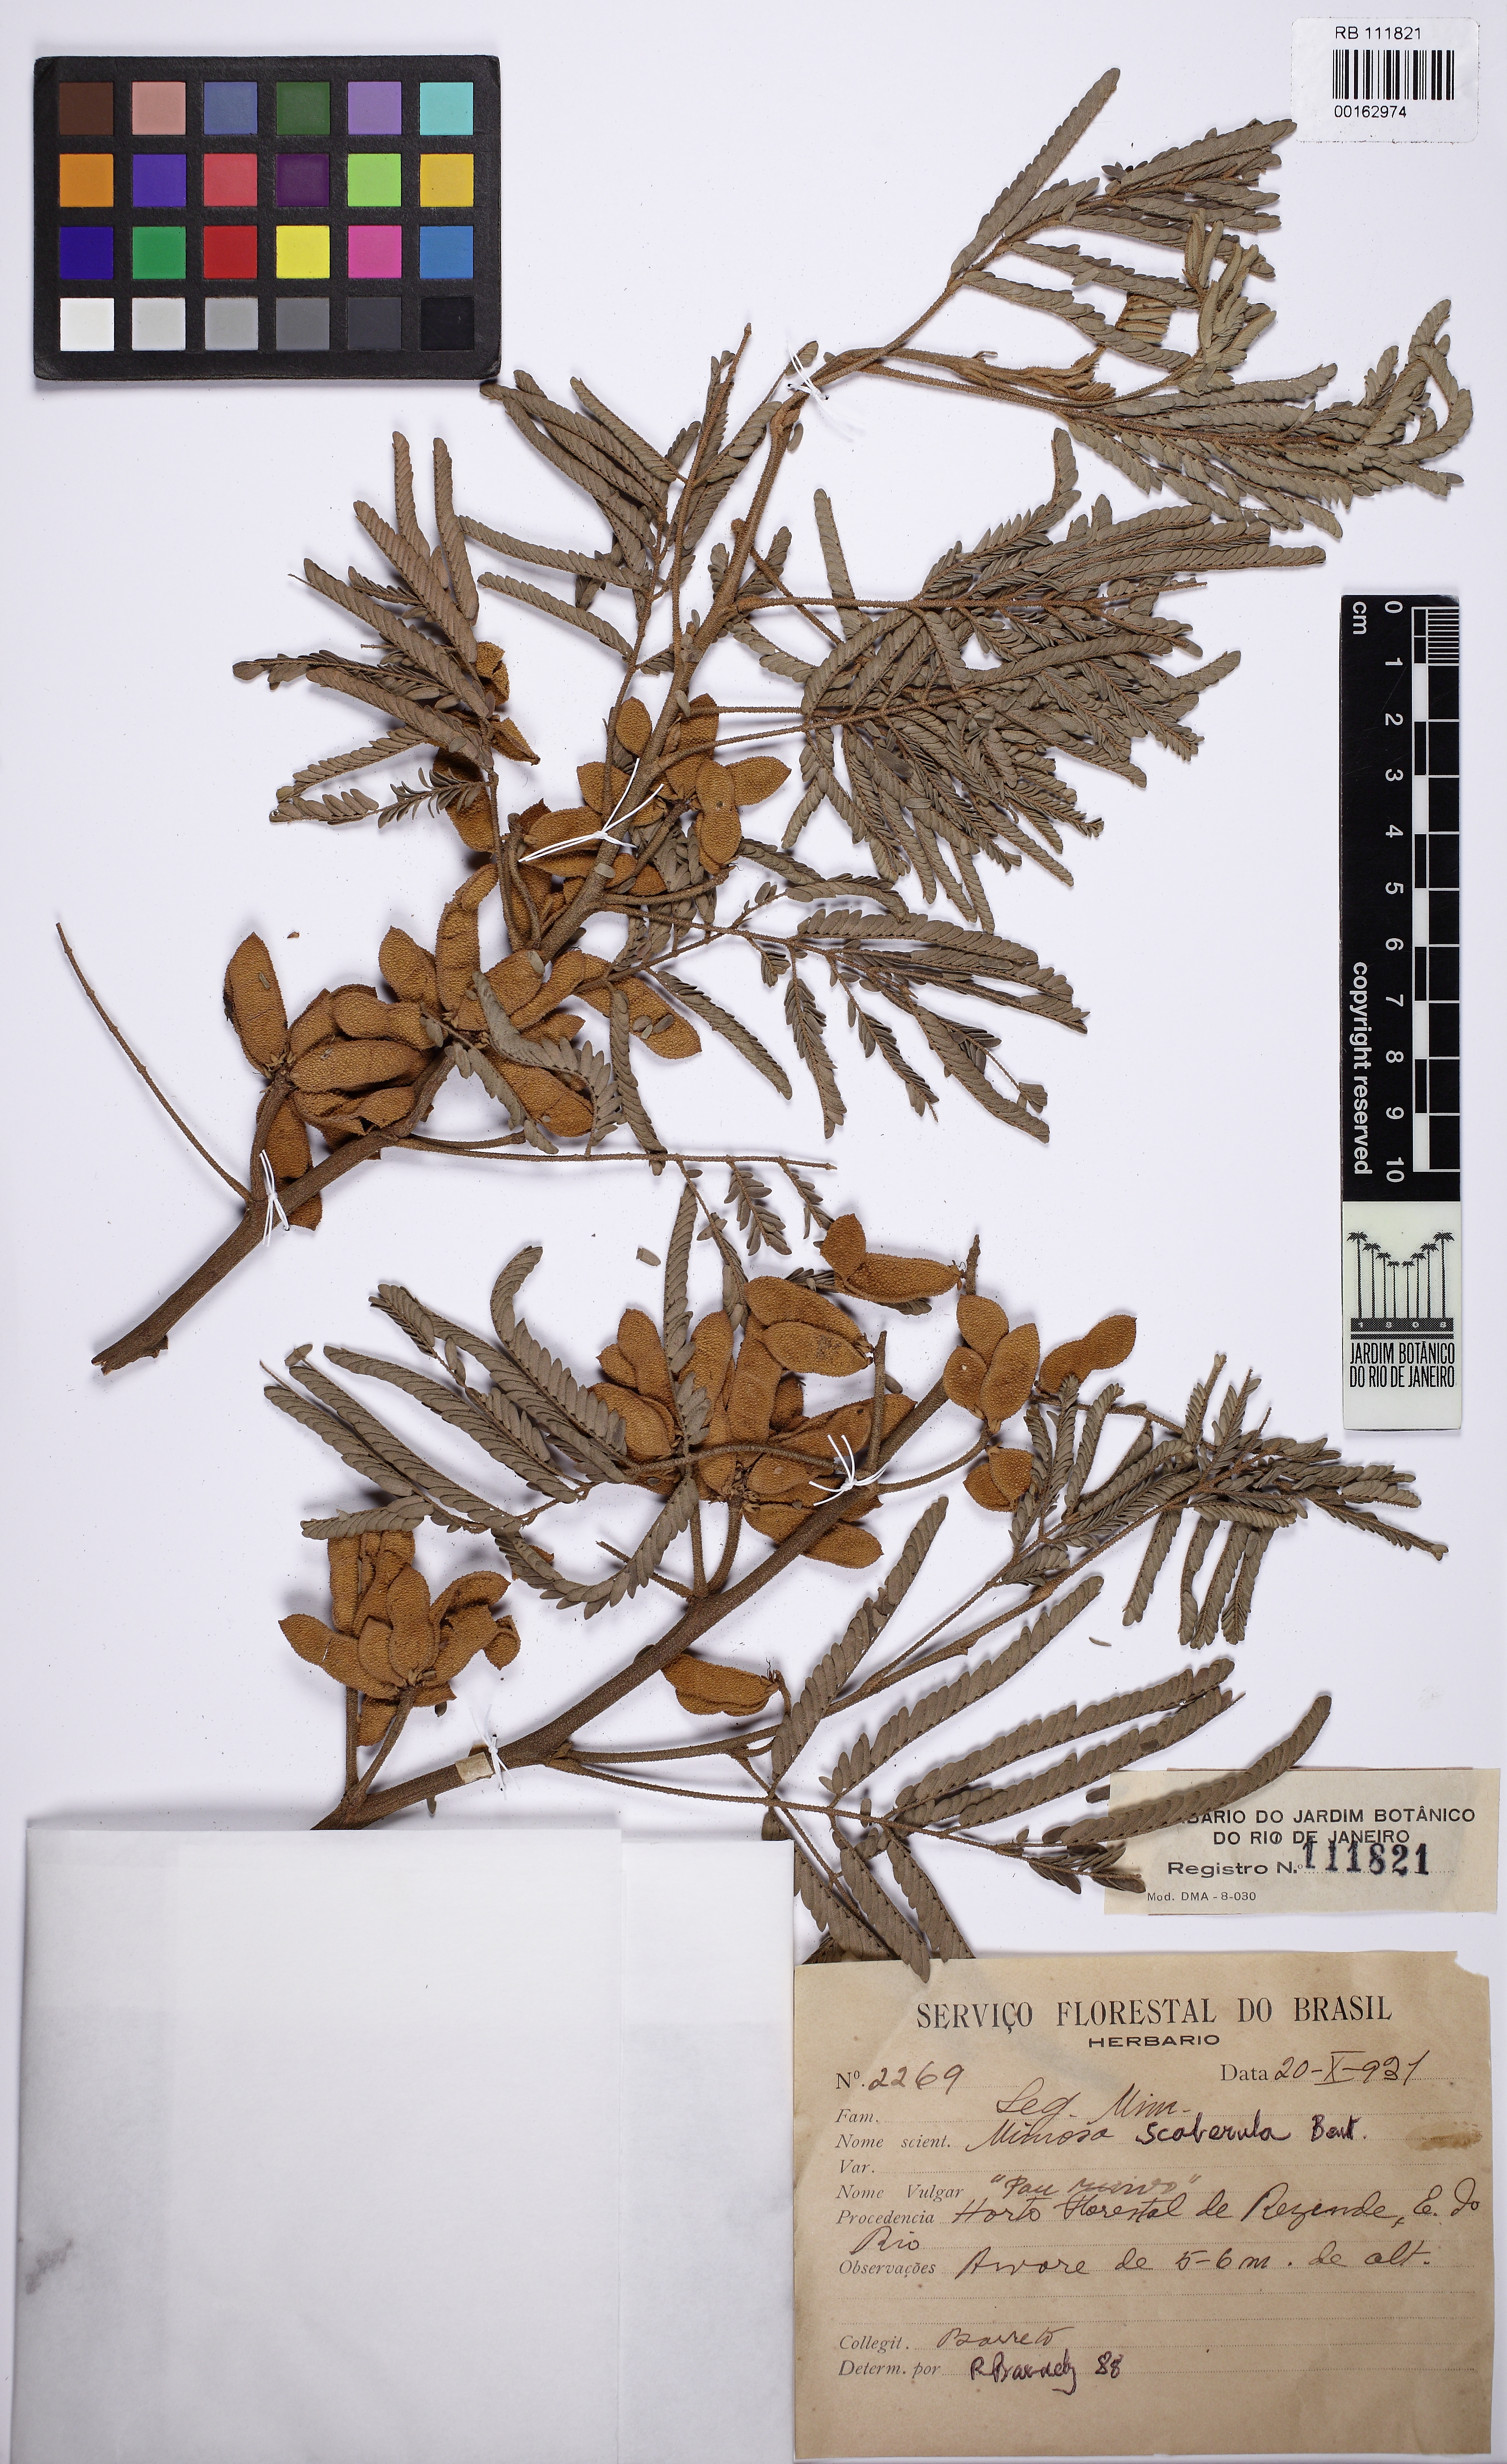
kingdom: Plantae
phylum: Tracheophyta
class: Magnoliopsida
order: Fabales
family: Fabaceae
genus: Mimosa
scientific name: Mimosa scabrella
